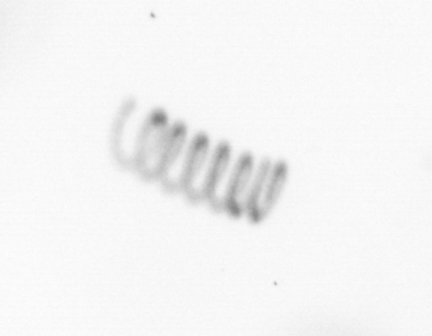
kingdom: Chromista
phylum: Ochrophyta
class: Bacillariophyceae
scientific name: Bacillariophyceae
